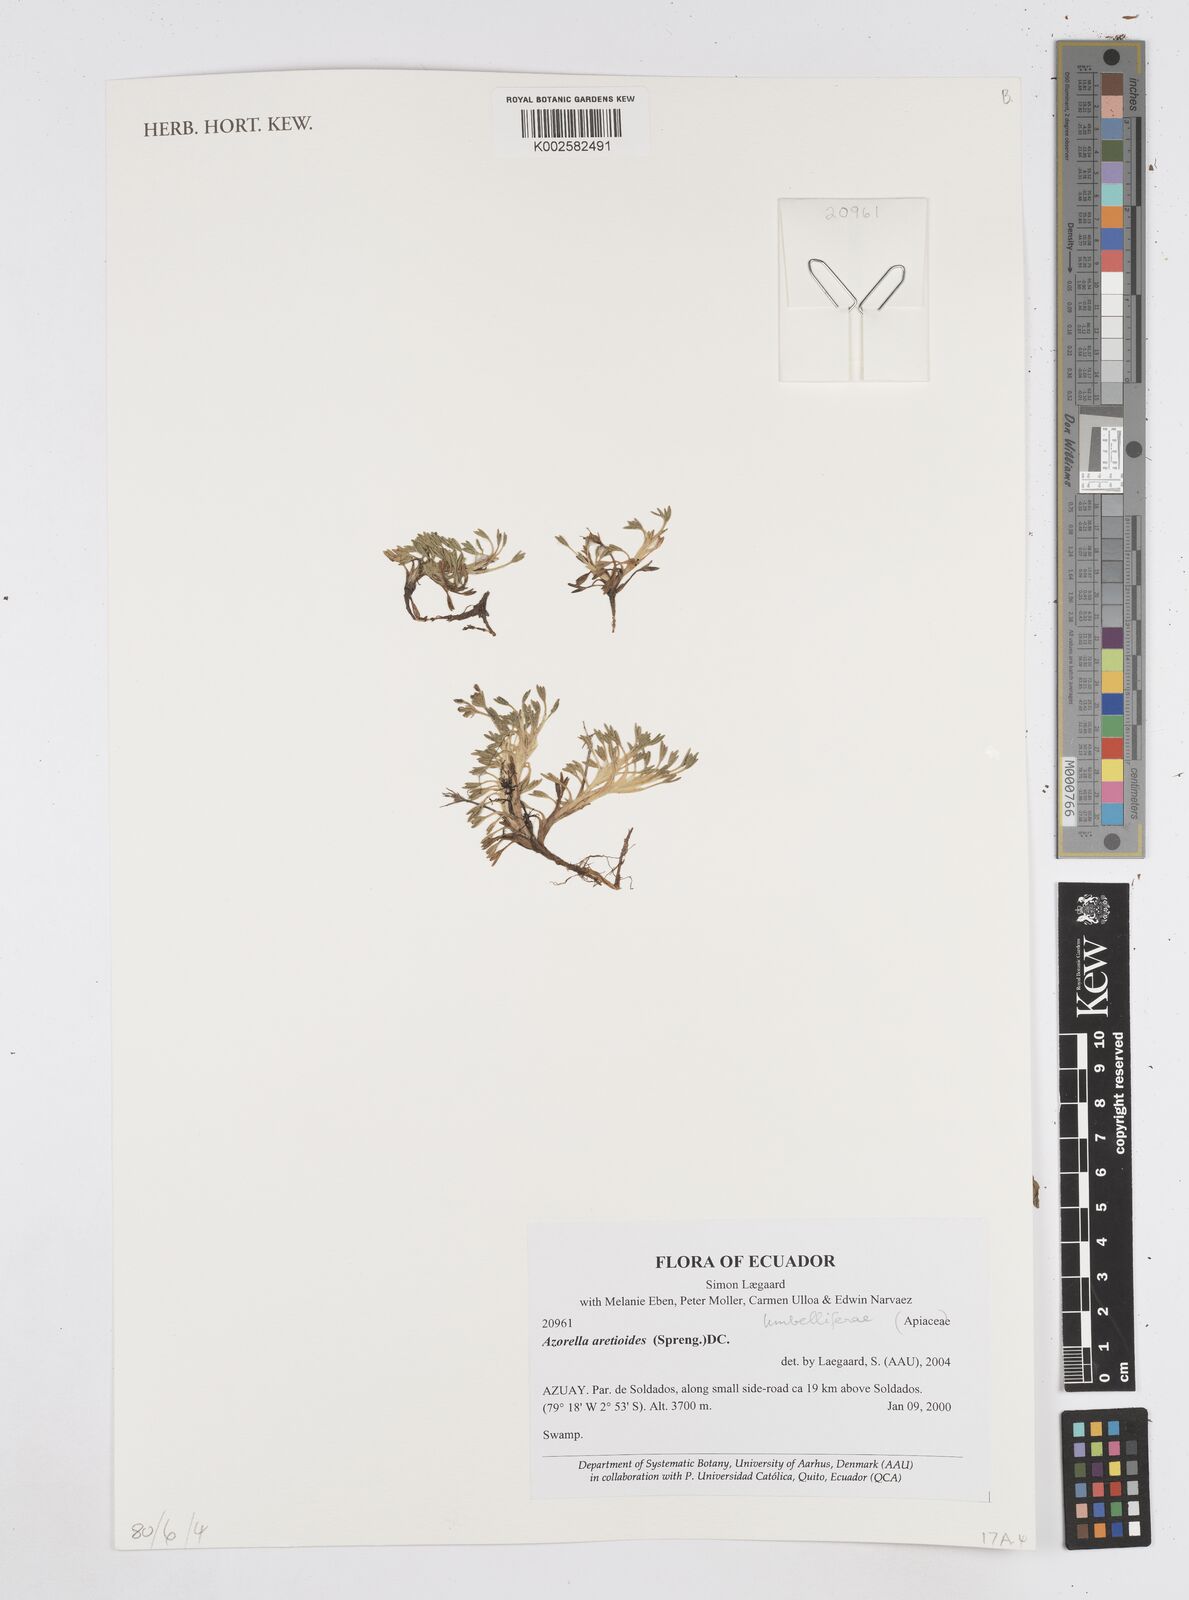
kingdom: Plantae
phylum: Tracheophyta
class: Magnoliopsida
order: Apiales
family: Apiaceae
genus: Azorella
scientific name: Azorella aretioides
